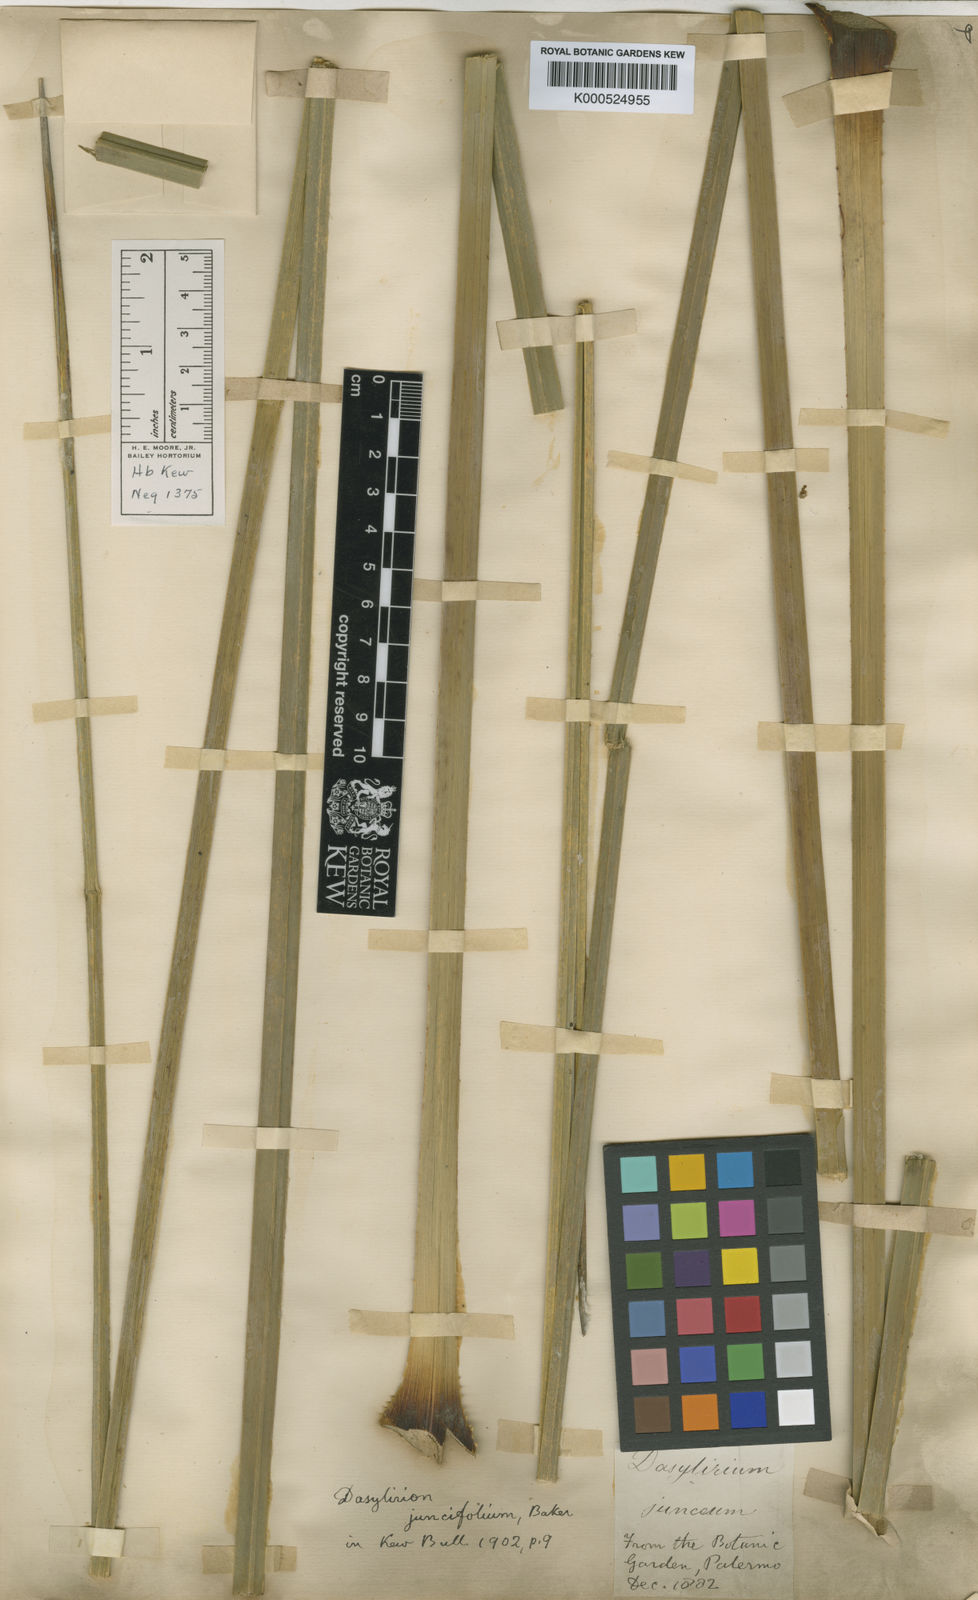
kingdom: Plantae
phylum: Tracheophyta
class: Liliopsida
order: Asparagales
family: Asparagaceae
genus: Dasylirion
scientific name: Dasylirion longissimum
